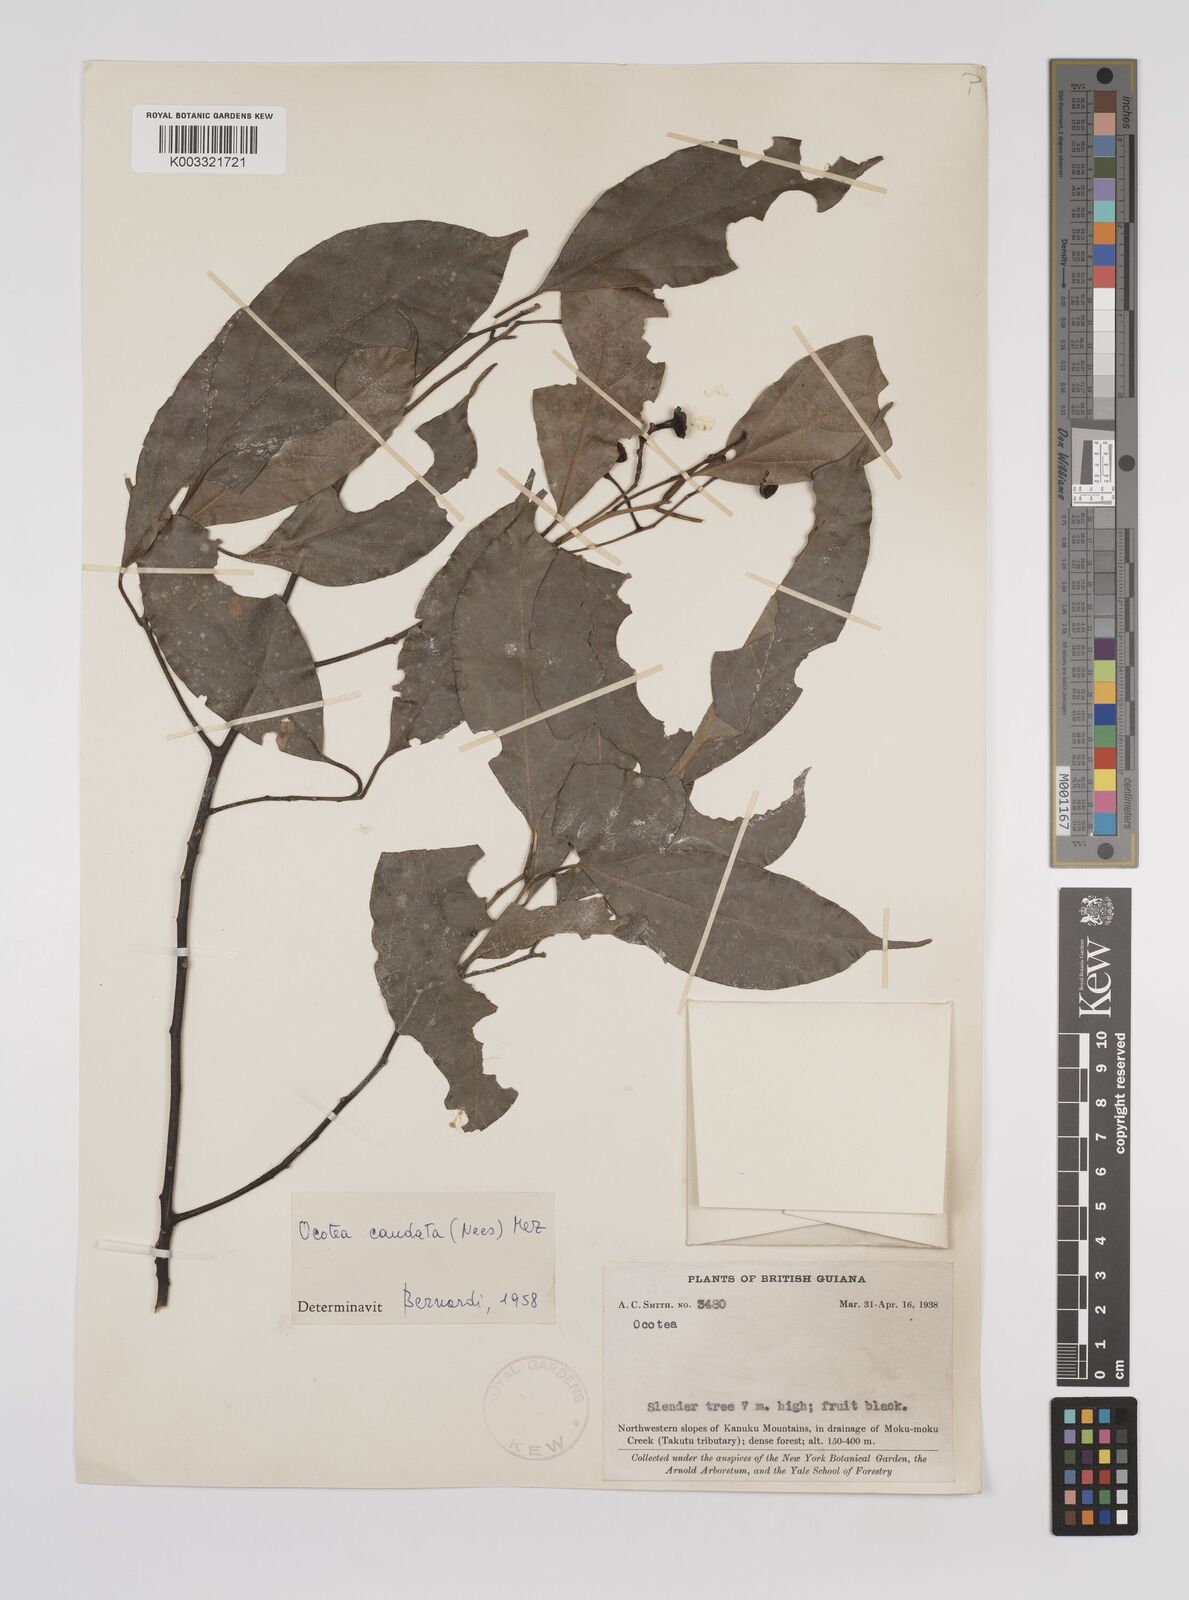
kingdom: Plantae
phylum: Tracheophyta
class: Magnoliopsida
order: Laurales
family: Lauraceae
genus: Ocotea
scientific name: Ocotea leptobotra
